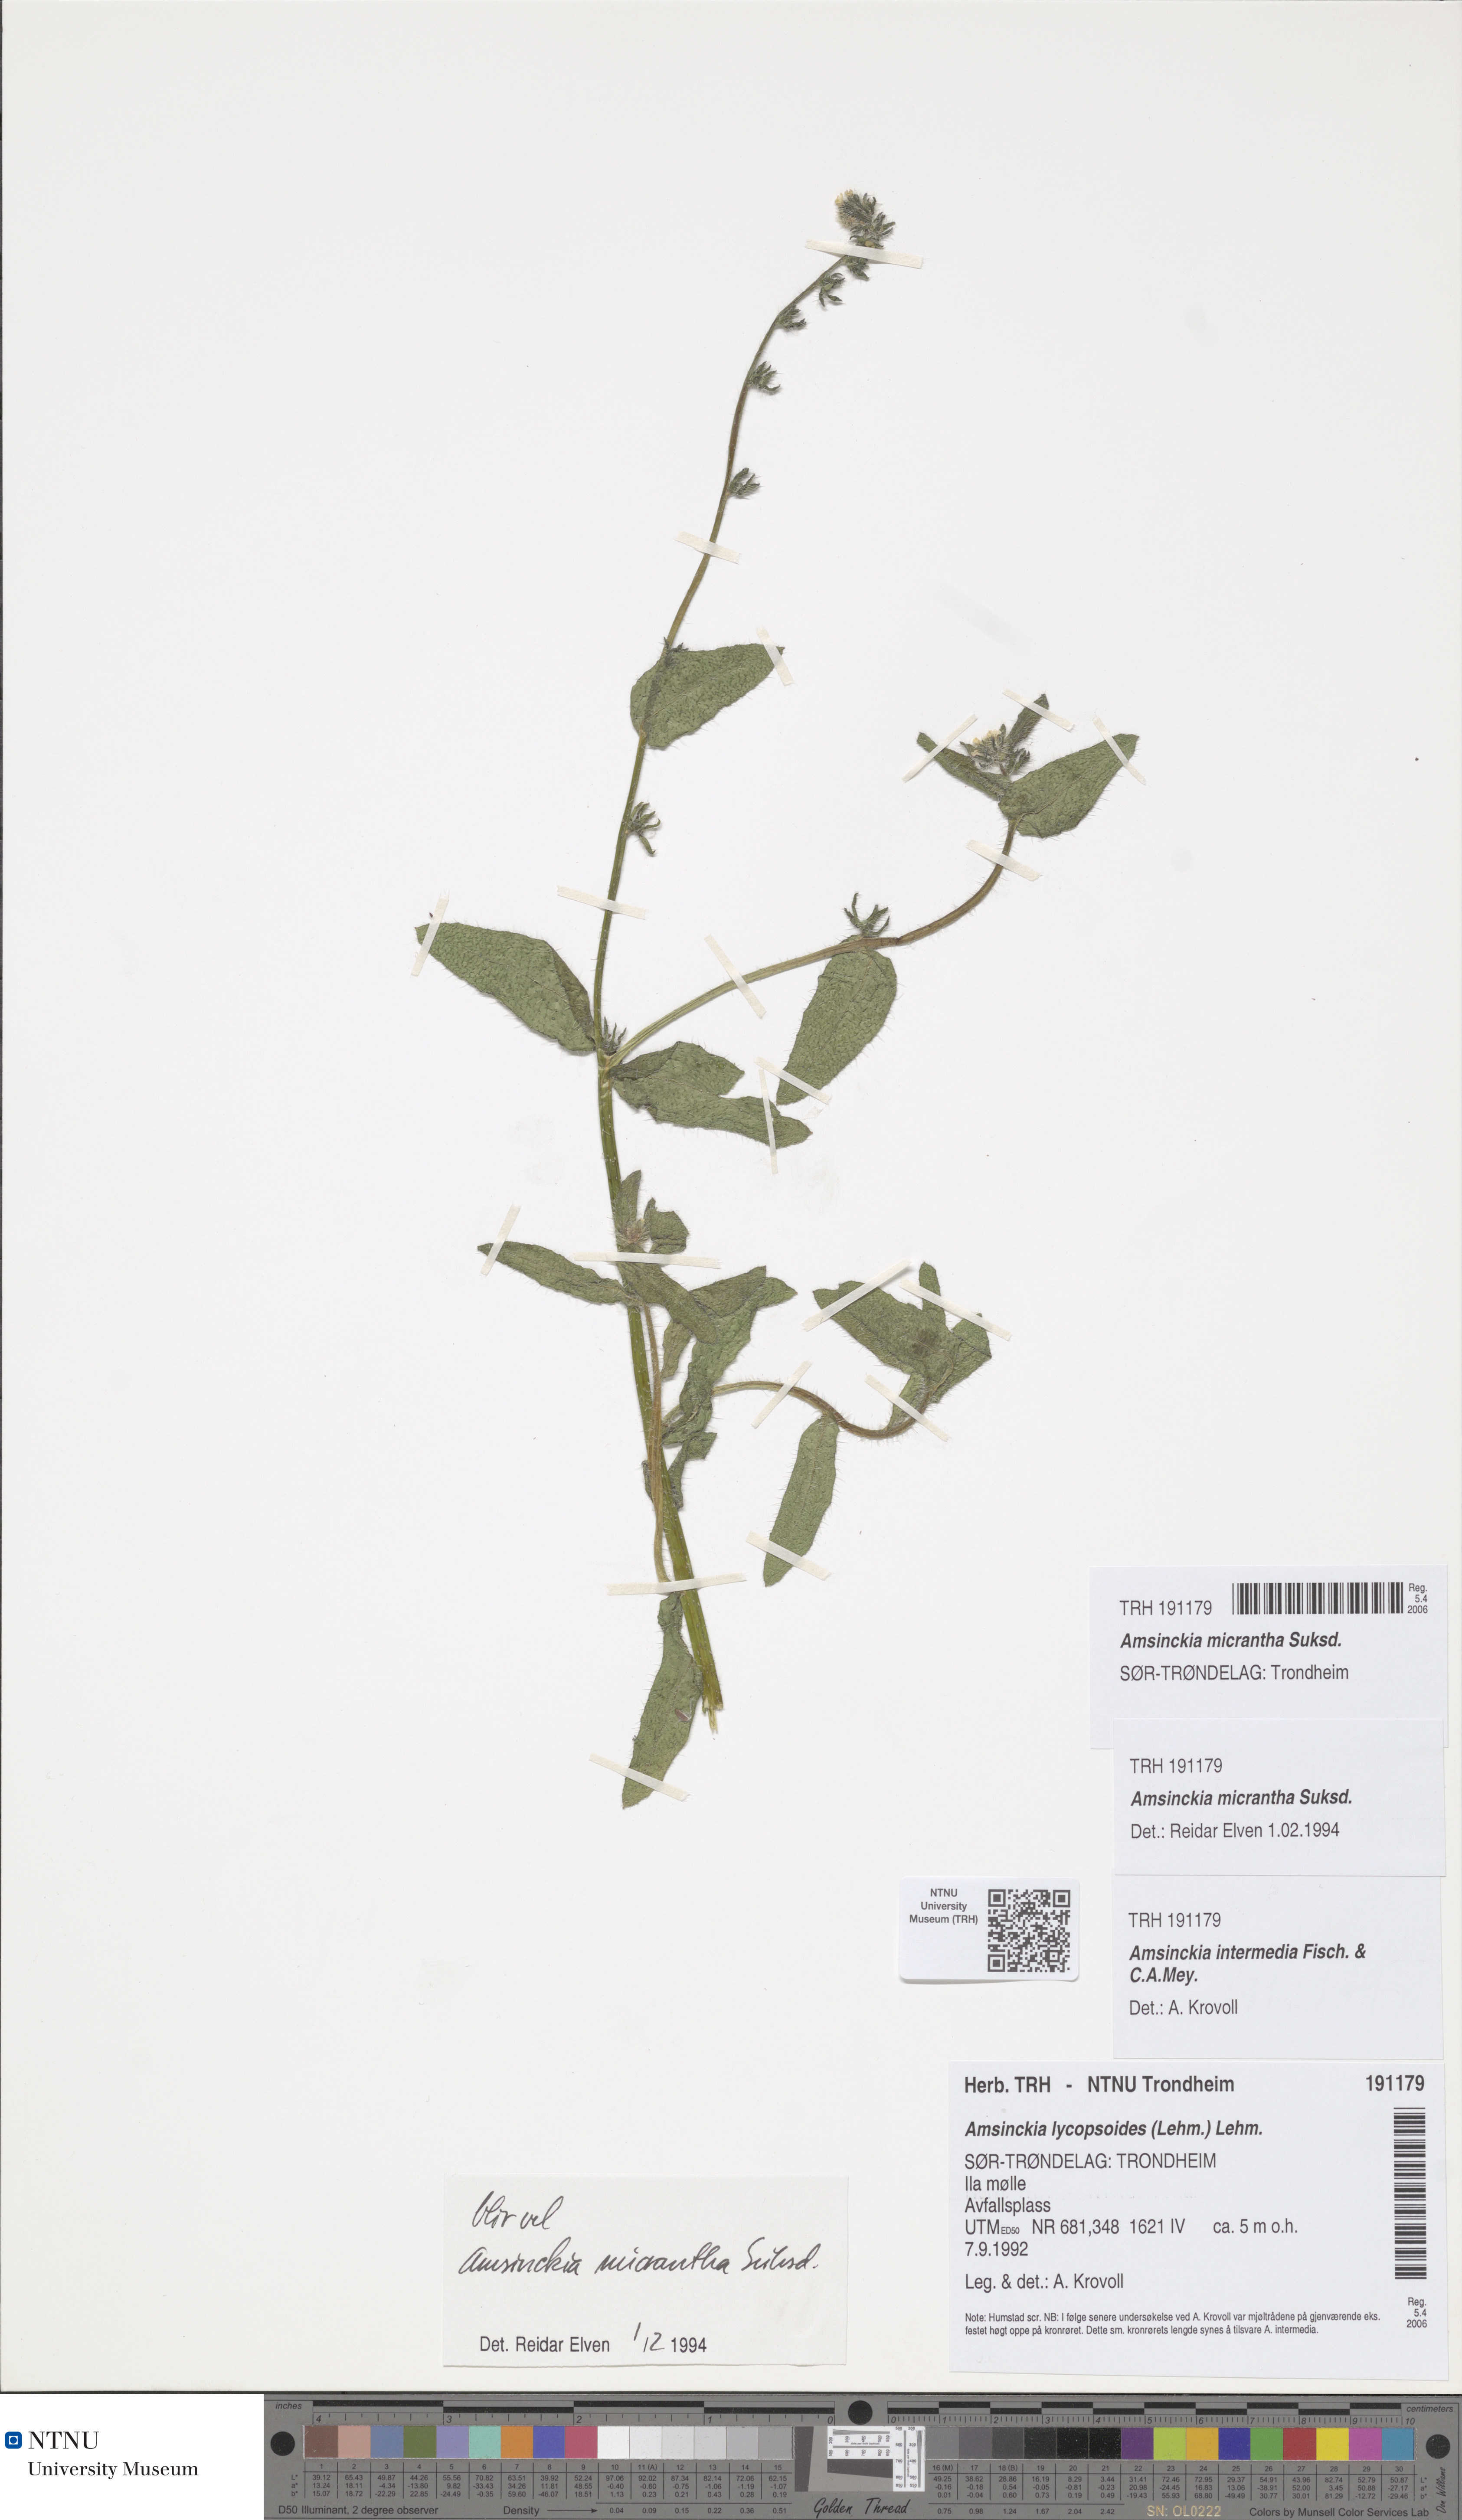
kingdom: Plantae
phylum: Tracheophyta
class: Magnoliopsida
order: Boraginales
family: Boraginaceae
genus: Amsinckia
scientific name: Amsinckia menziesii
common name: Menzies' fiddleneck
